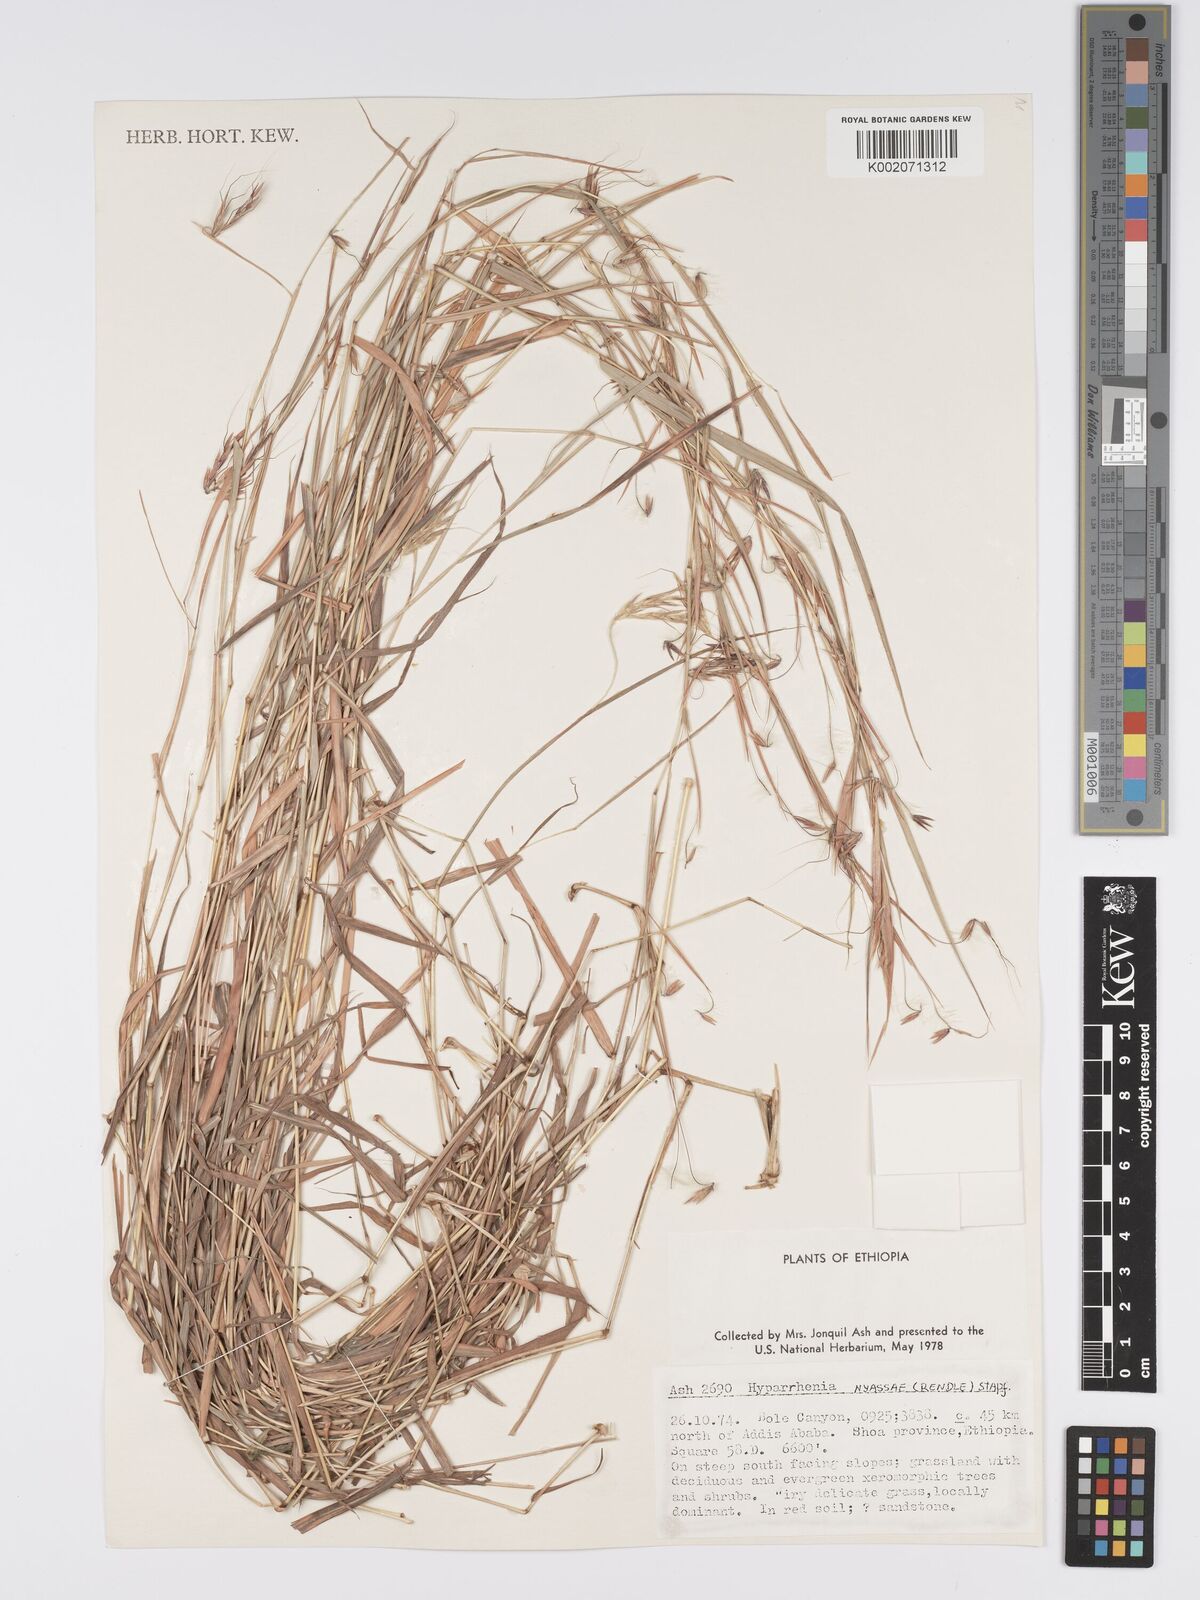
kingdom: Plantae
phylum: Tracheophyta
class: Liliopsida
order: Poales
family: Poaceae
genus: Hyparrhenia
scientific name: Hyparrhenia
